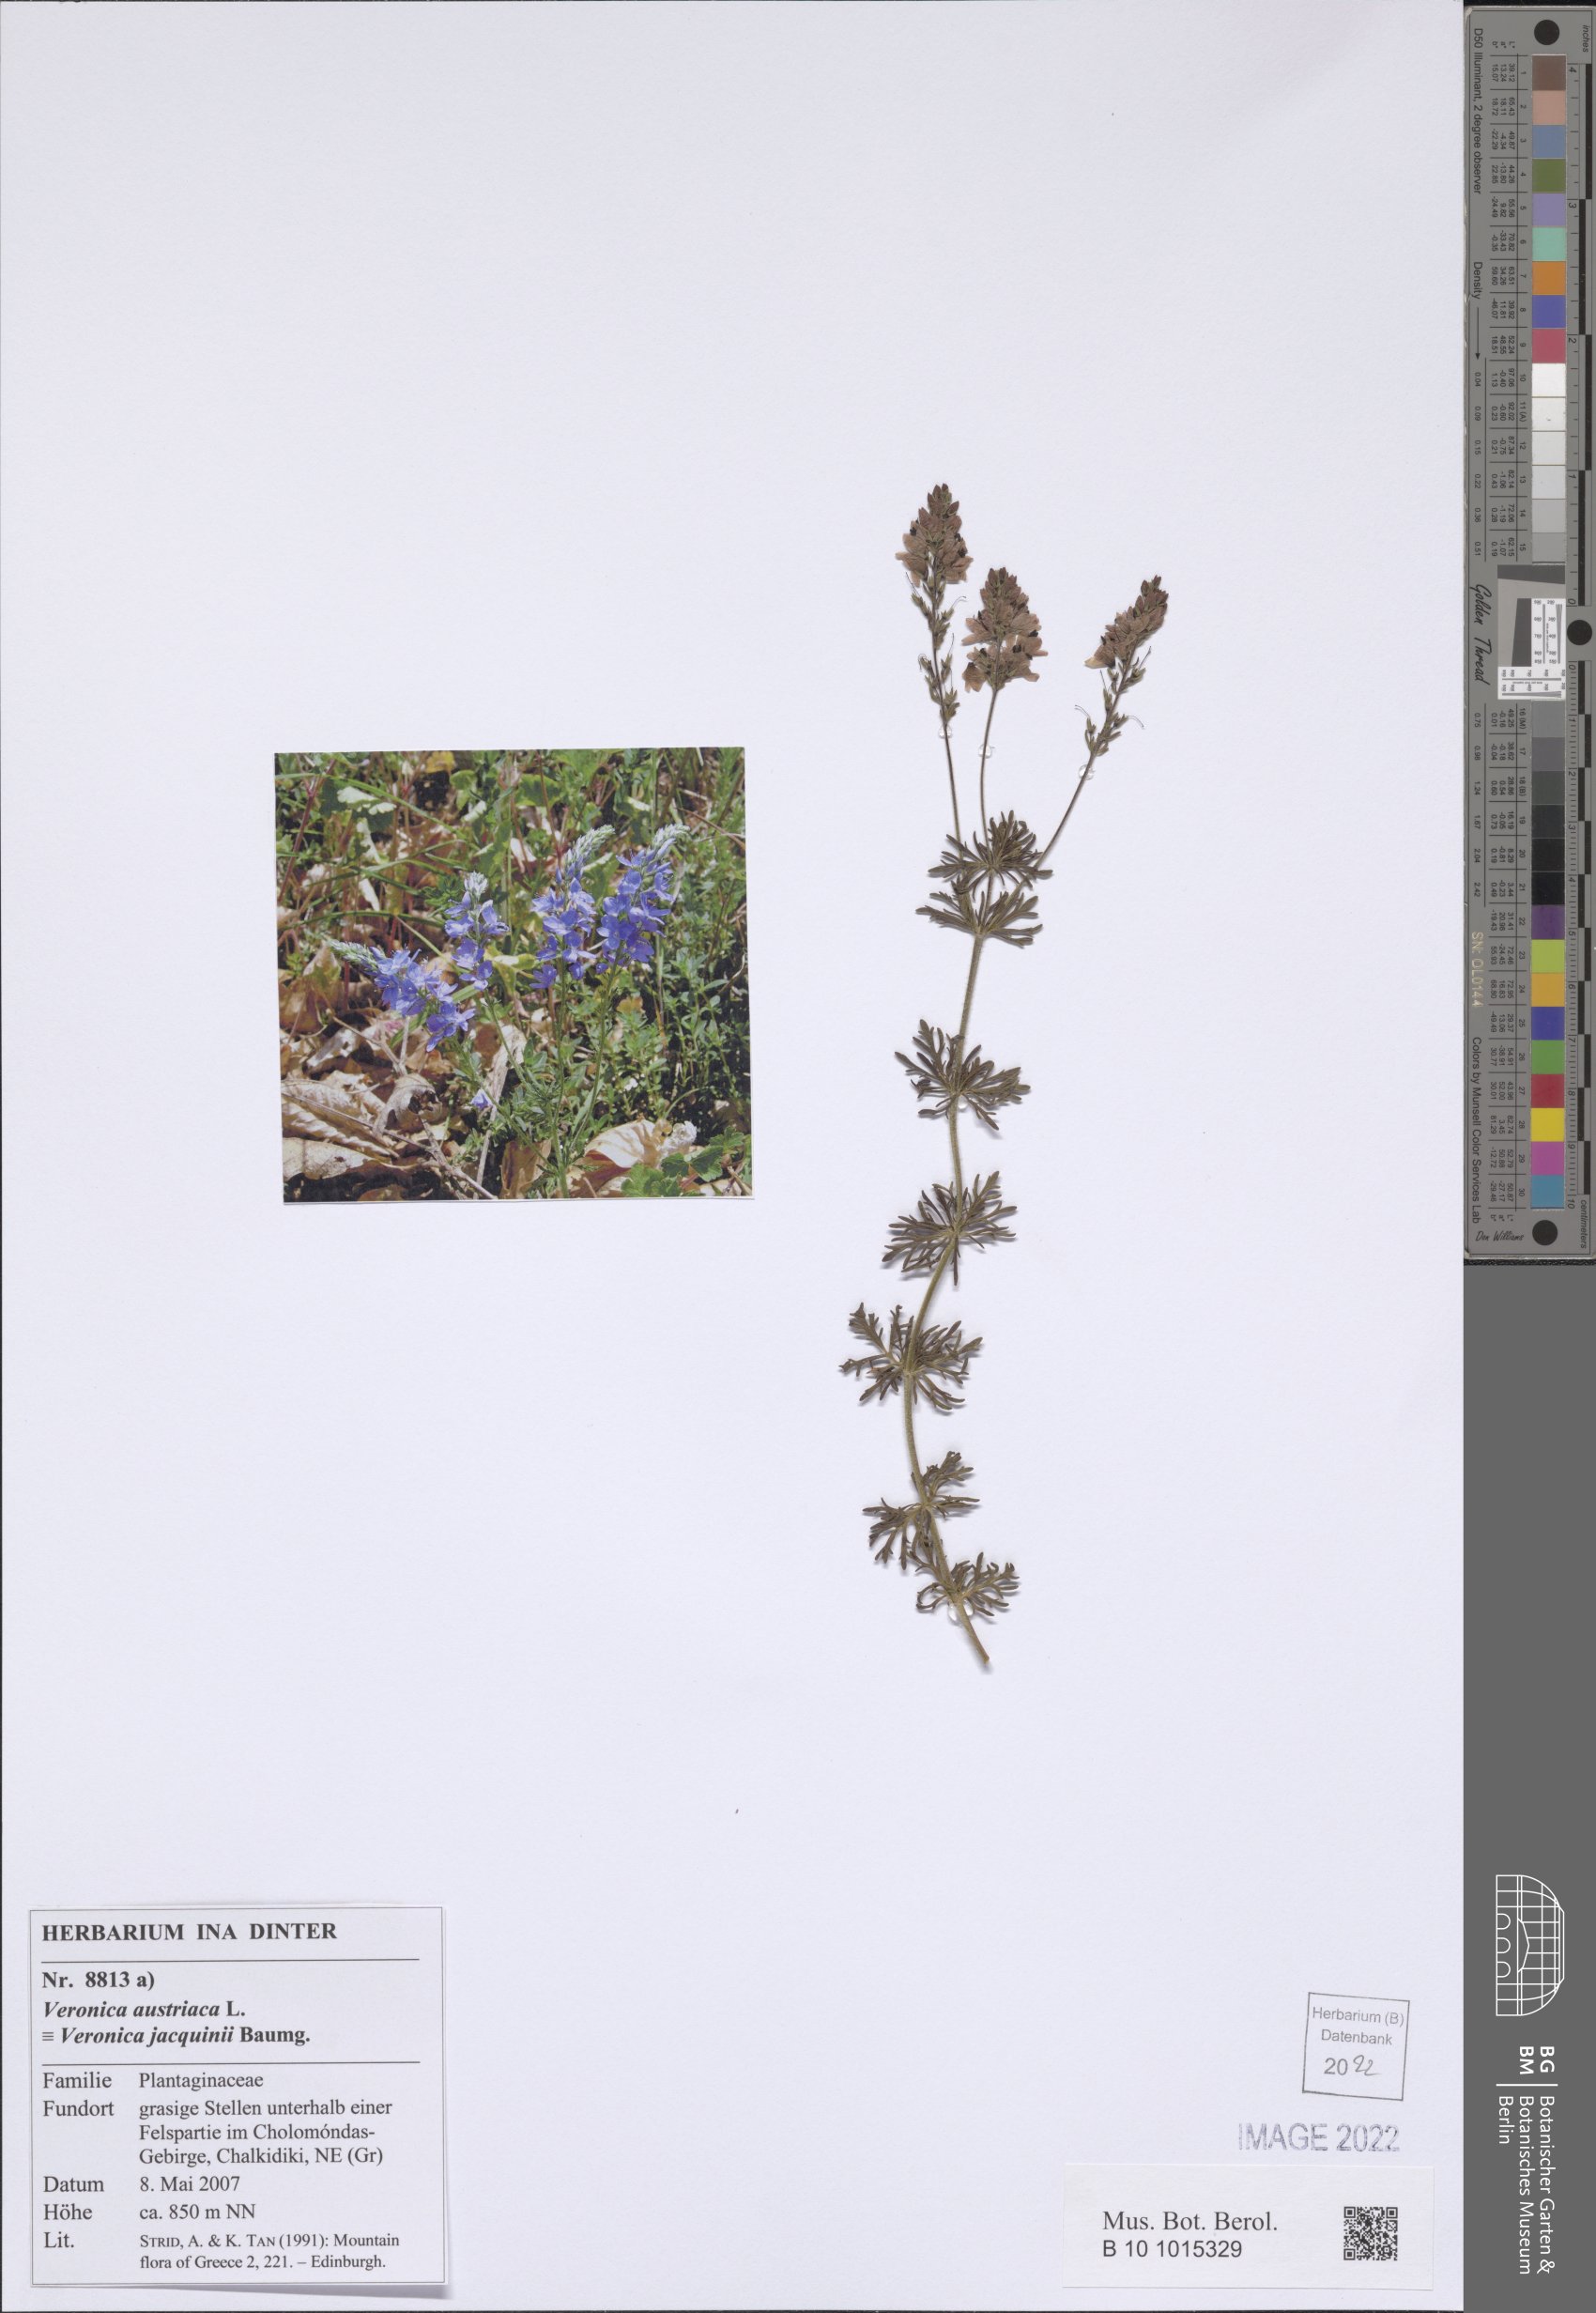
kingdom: Plantae
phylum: Tracheophyta
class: Magnoliopsida
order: Lamiales
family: Plantaginaceae
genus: Veronica
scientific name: Veronica austriaca
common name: Large speedwell
